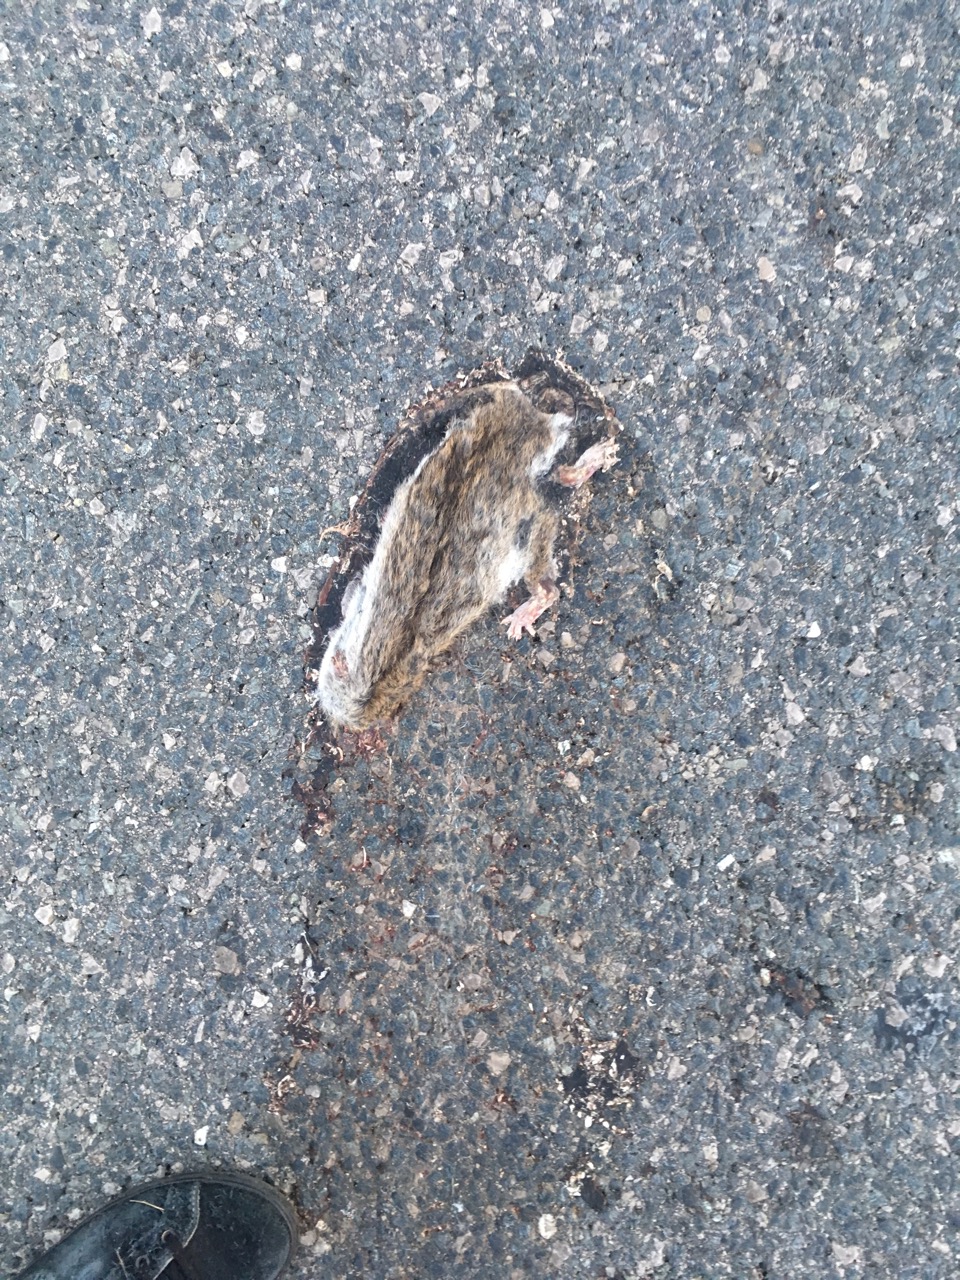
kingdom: Animalia
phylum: Chordata
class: Mammalia
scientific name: Mammalia
